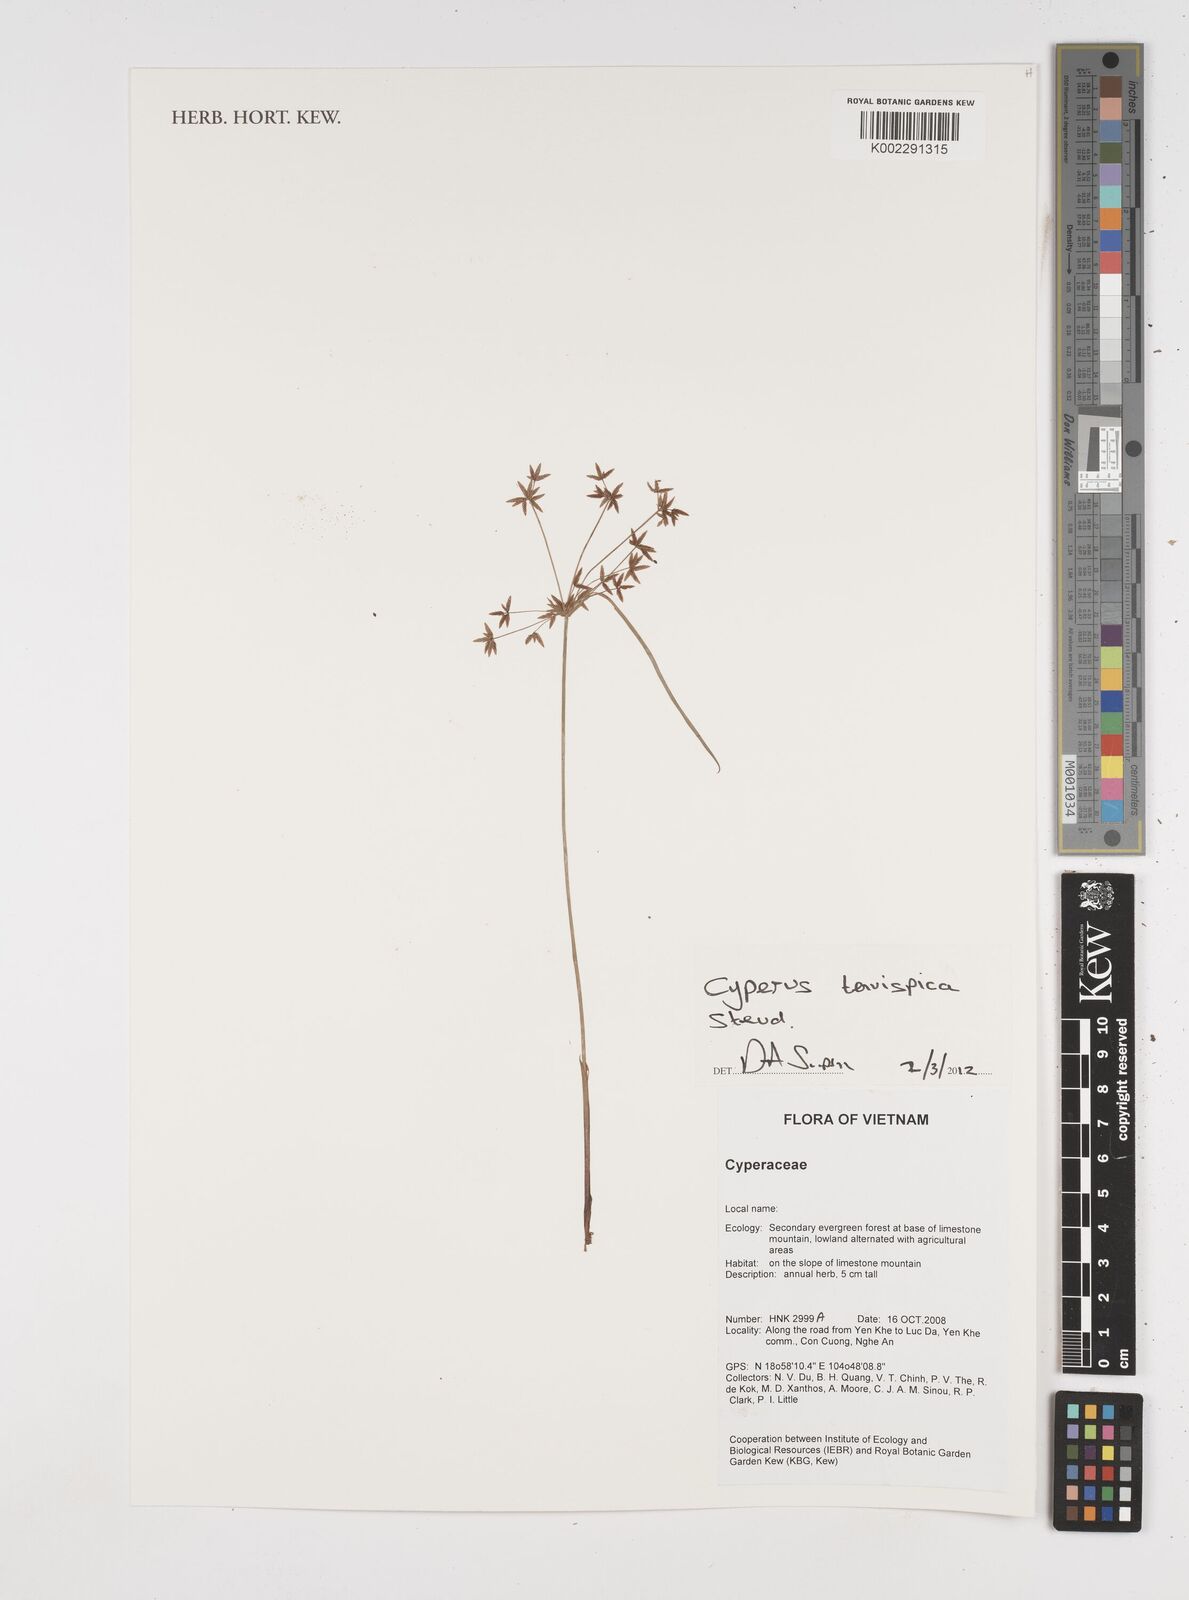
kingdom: Plantae
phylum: Tracheophyta
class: Liliopsida
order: Poales
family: Cyperaceae
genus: Cyperus
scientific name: Cyperus tenuispica
